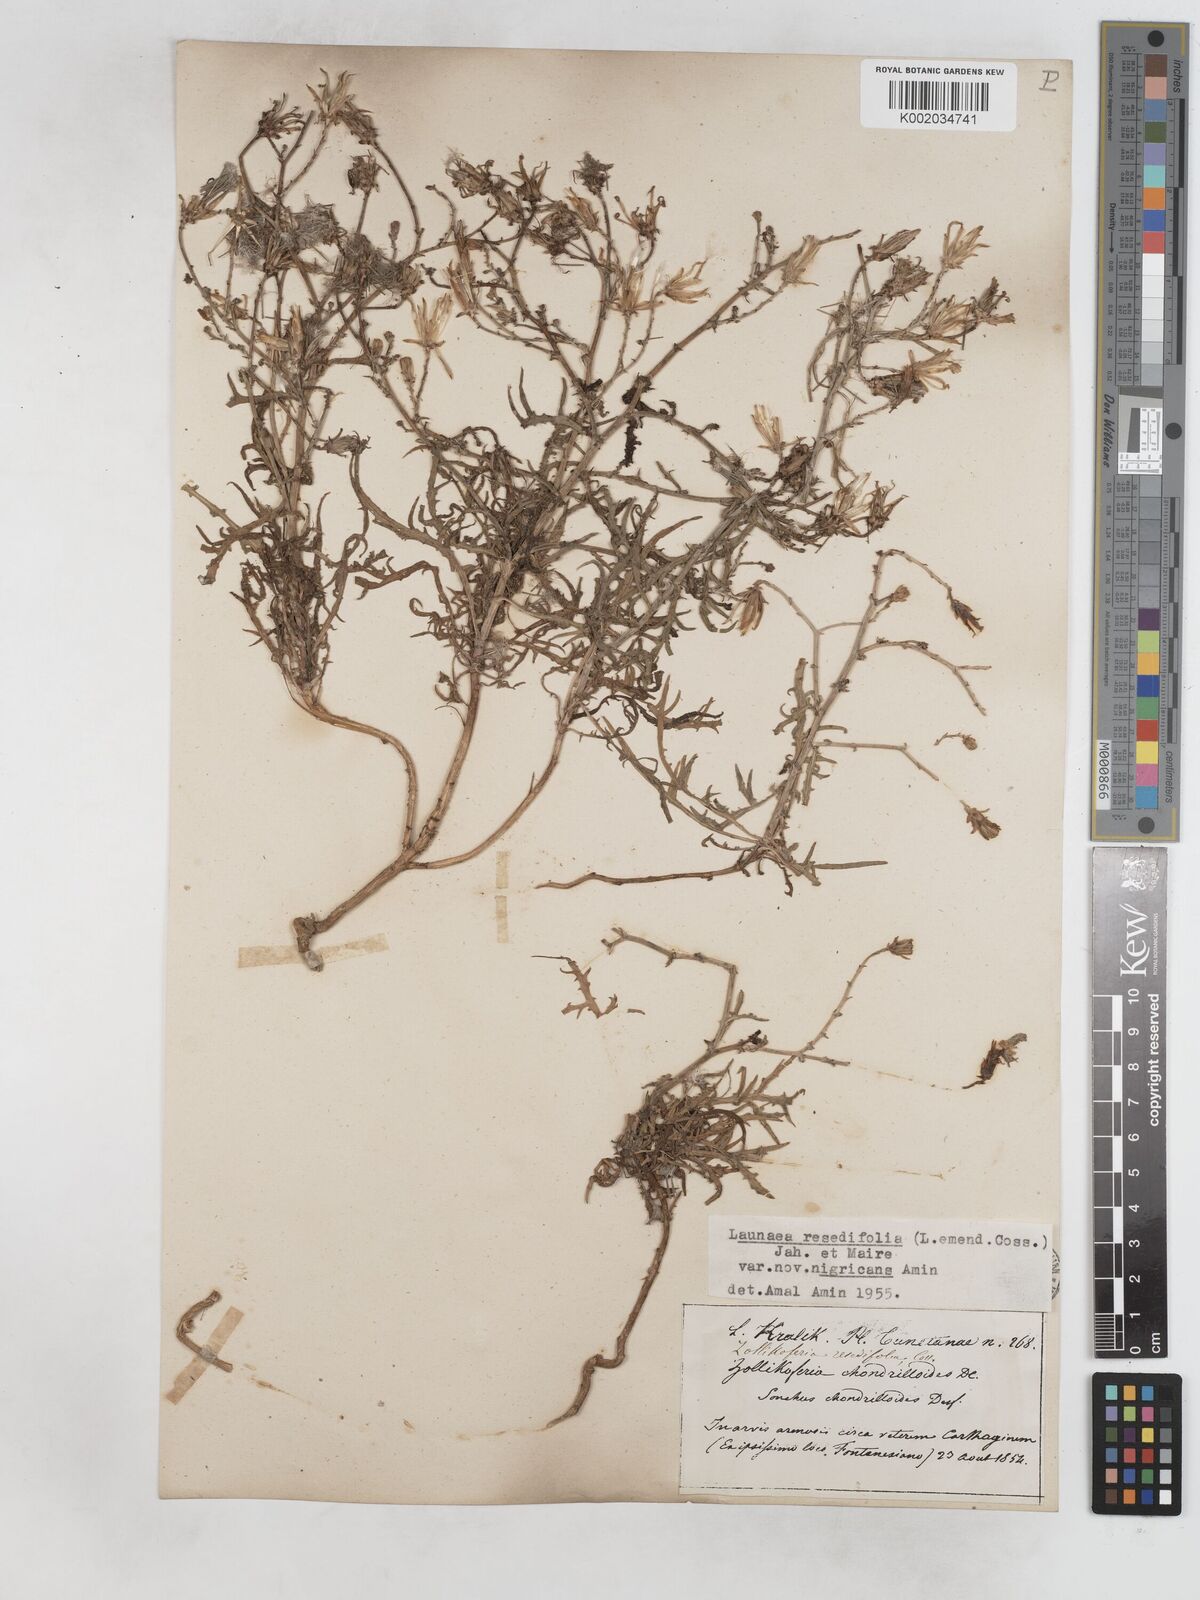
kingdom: Plantae
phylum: Tracheophyta
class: Magnoliopsida
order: Asterales
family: Asteraceae
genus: Launaea
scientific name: Launaea
